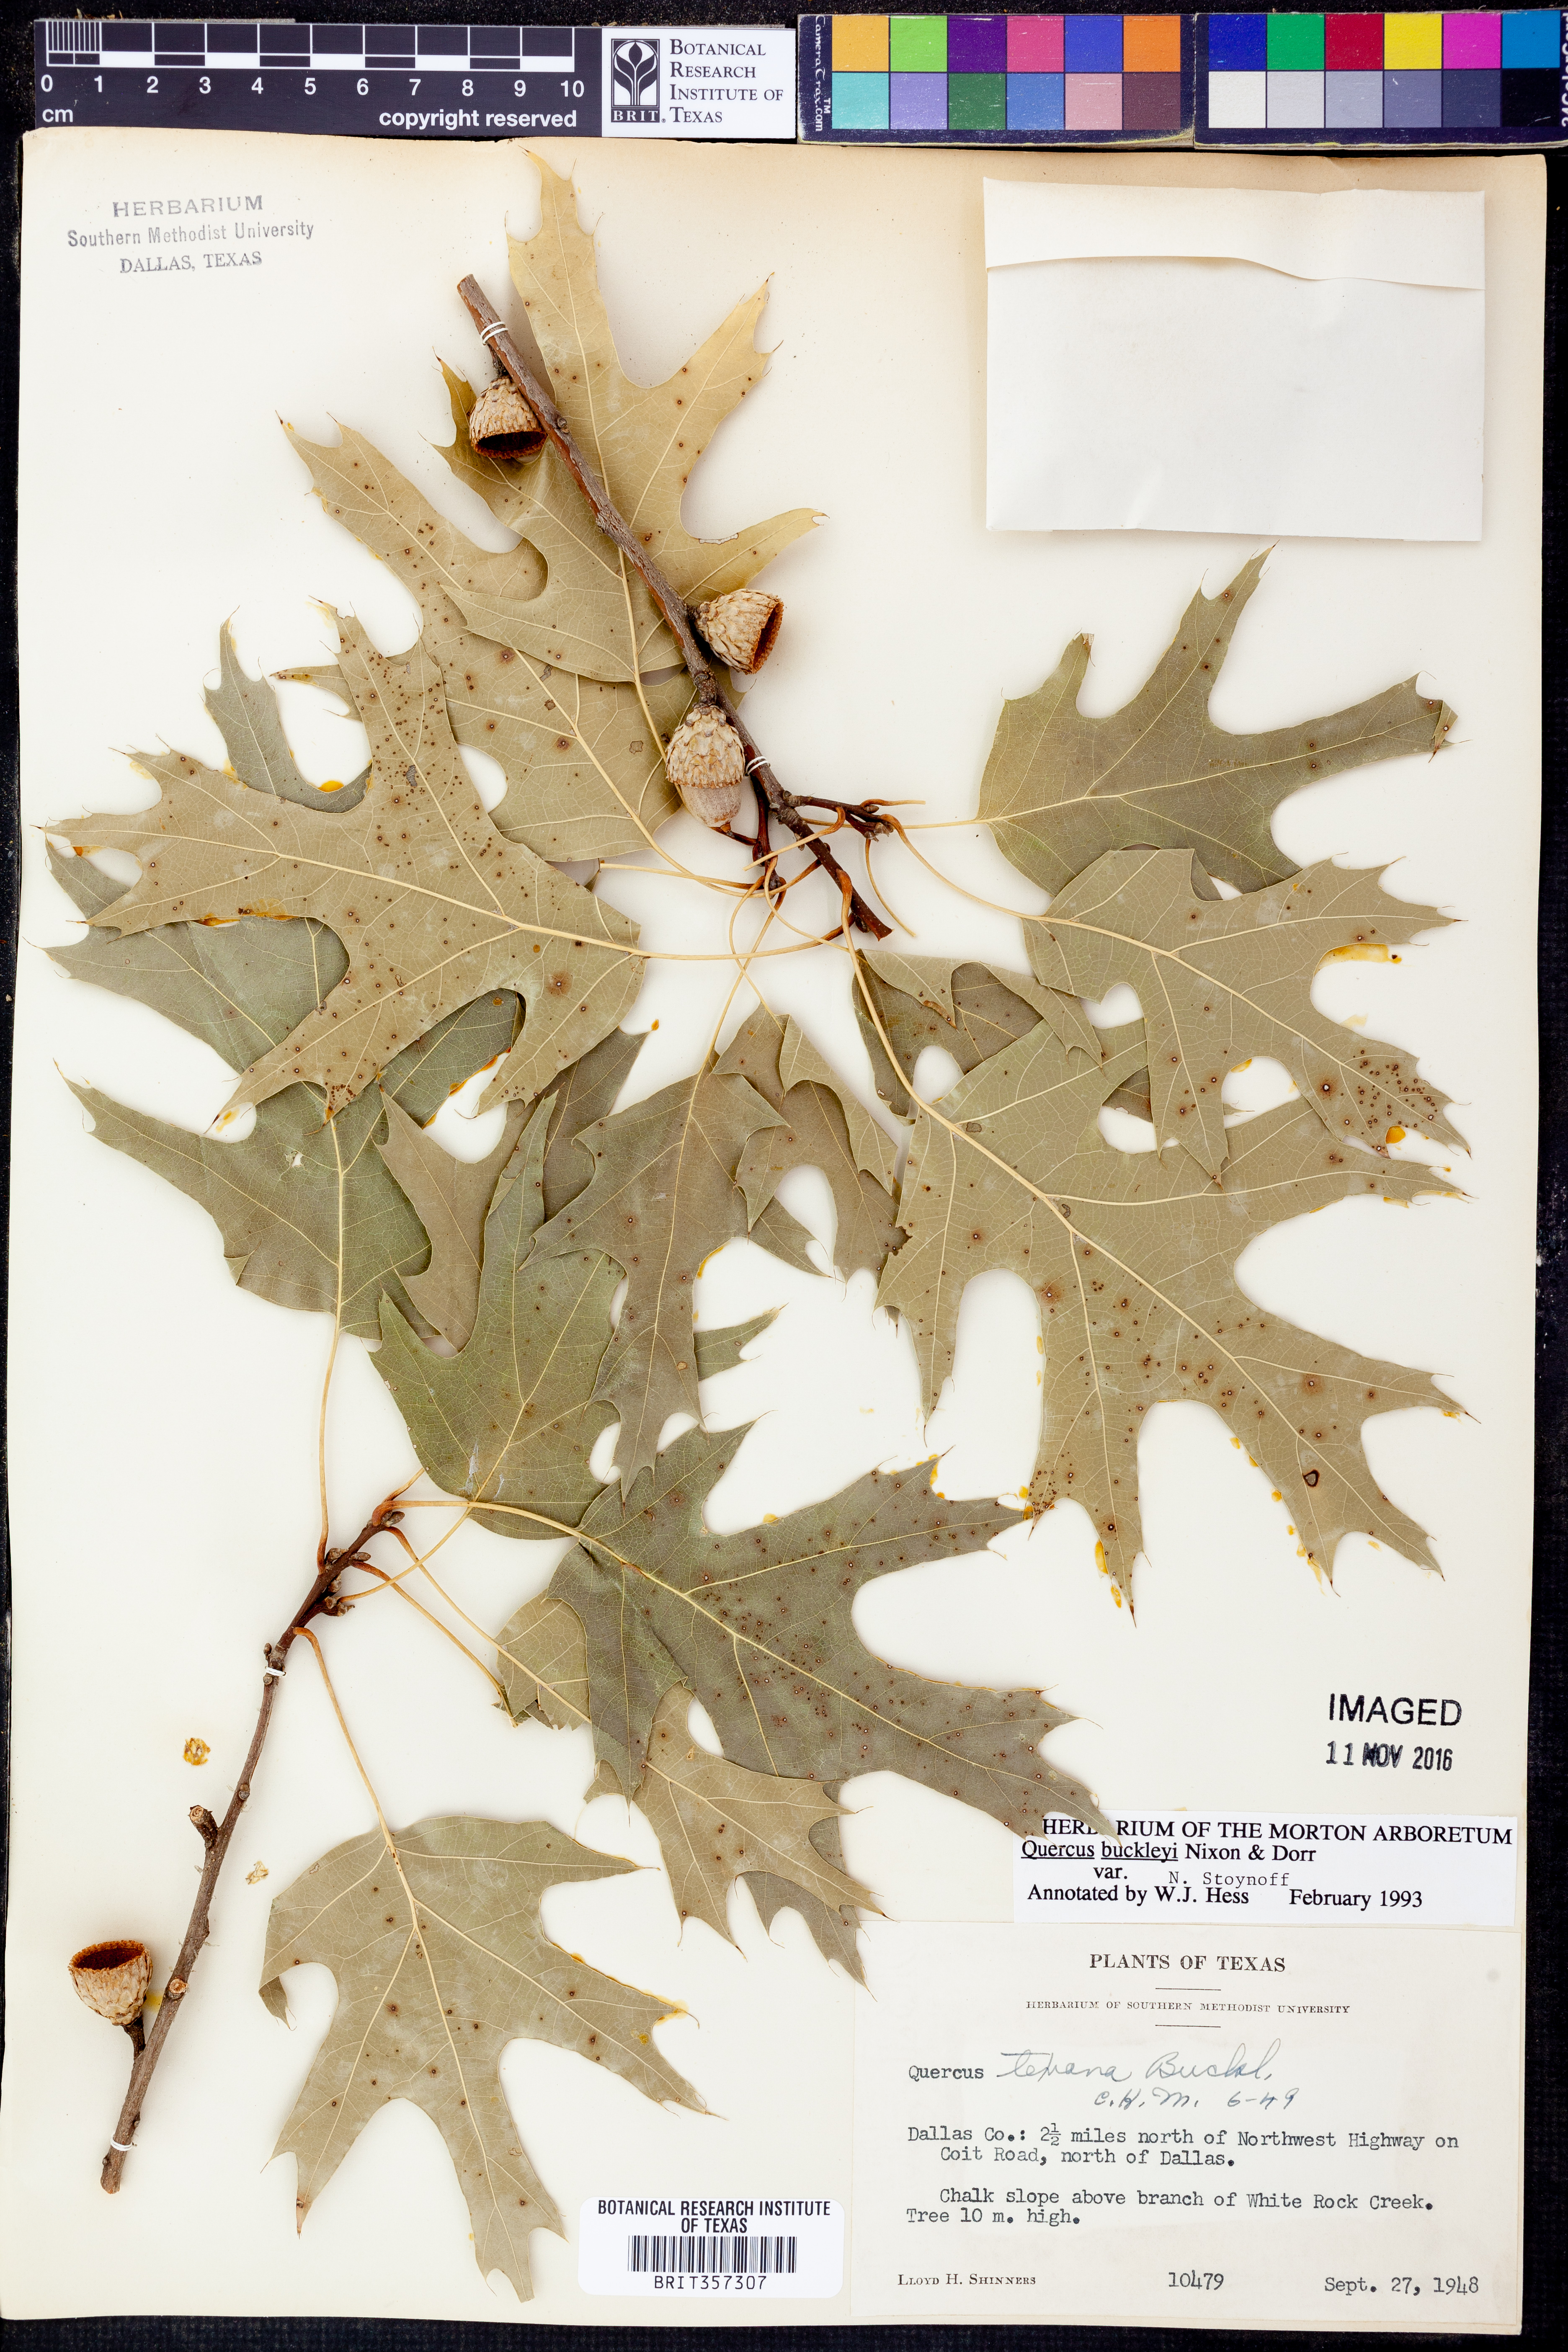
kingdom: Plantae
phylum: Tracheophyta
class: Magnoliopsida
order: Fagales
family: Fagaceae
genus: Quercus
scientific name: Quercus buckleyi
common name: Buckley oak
